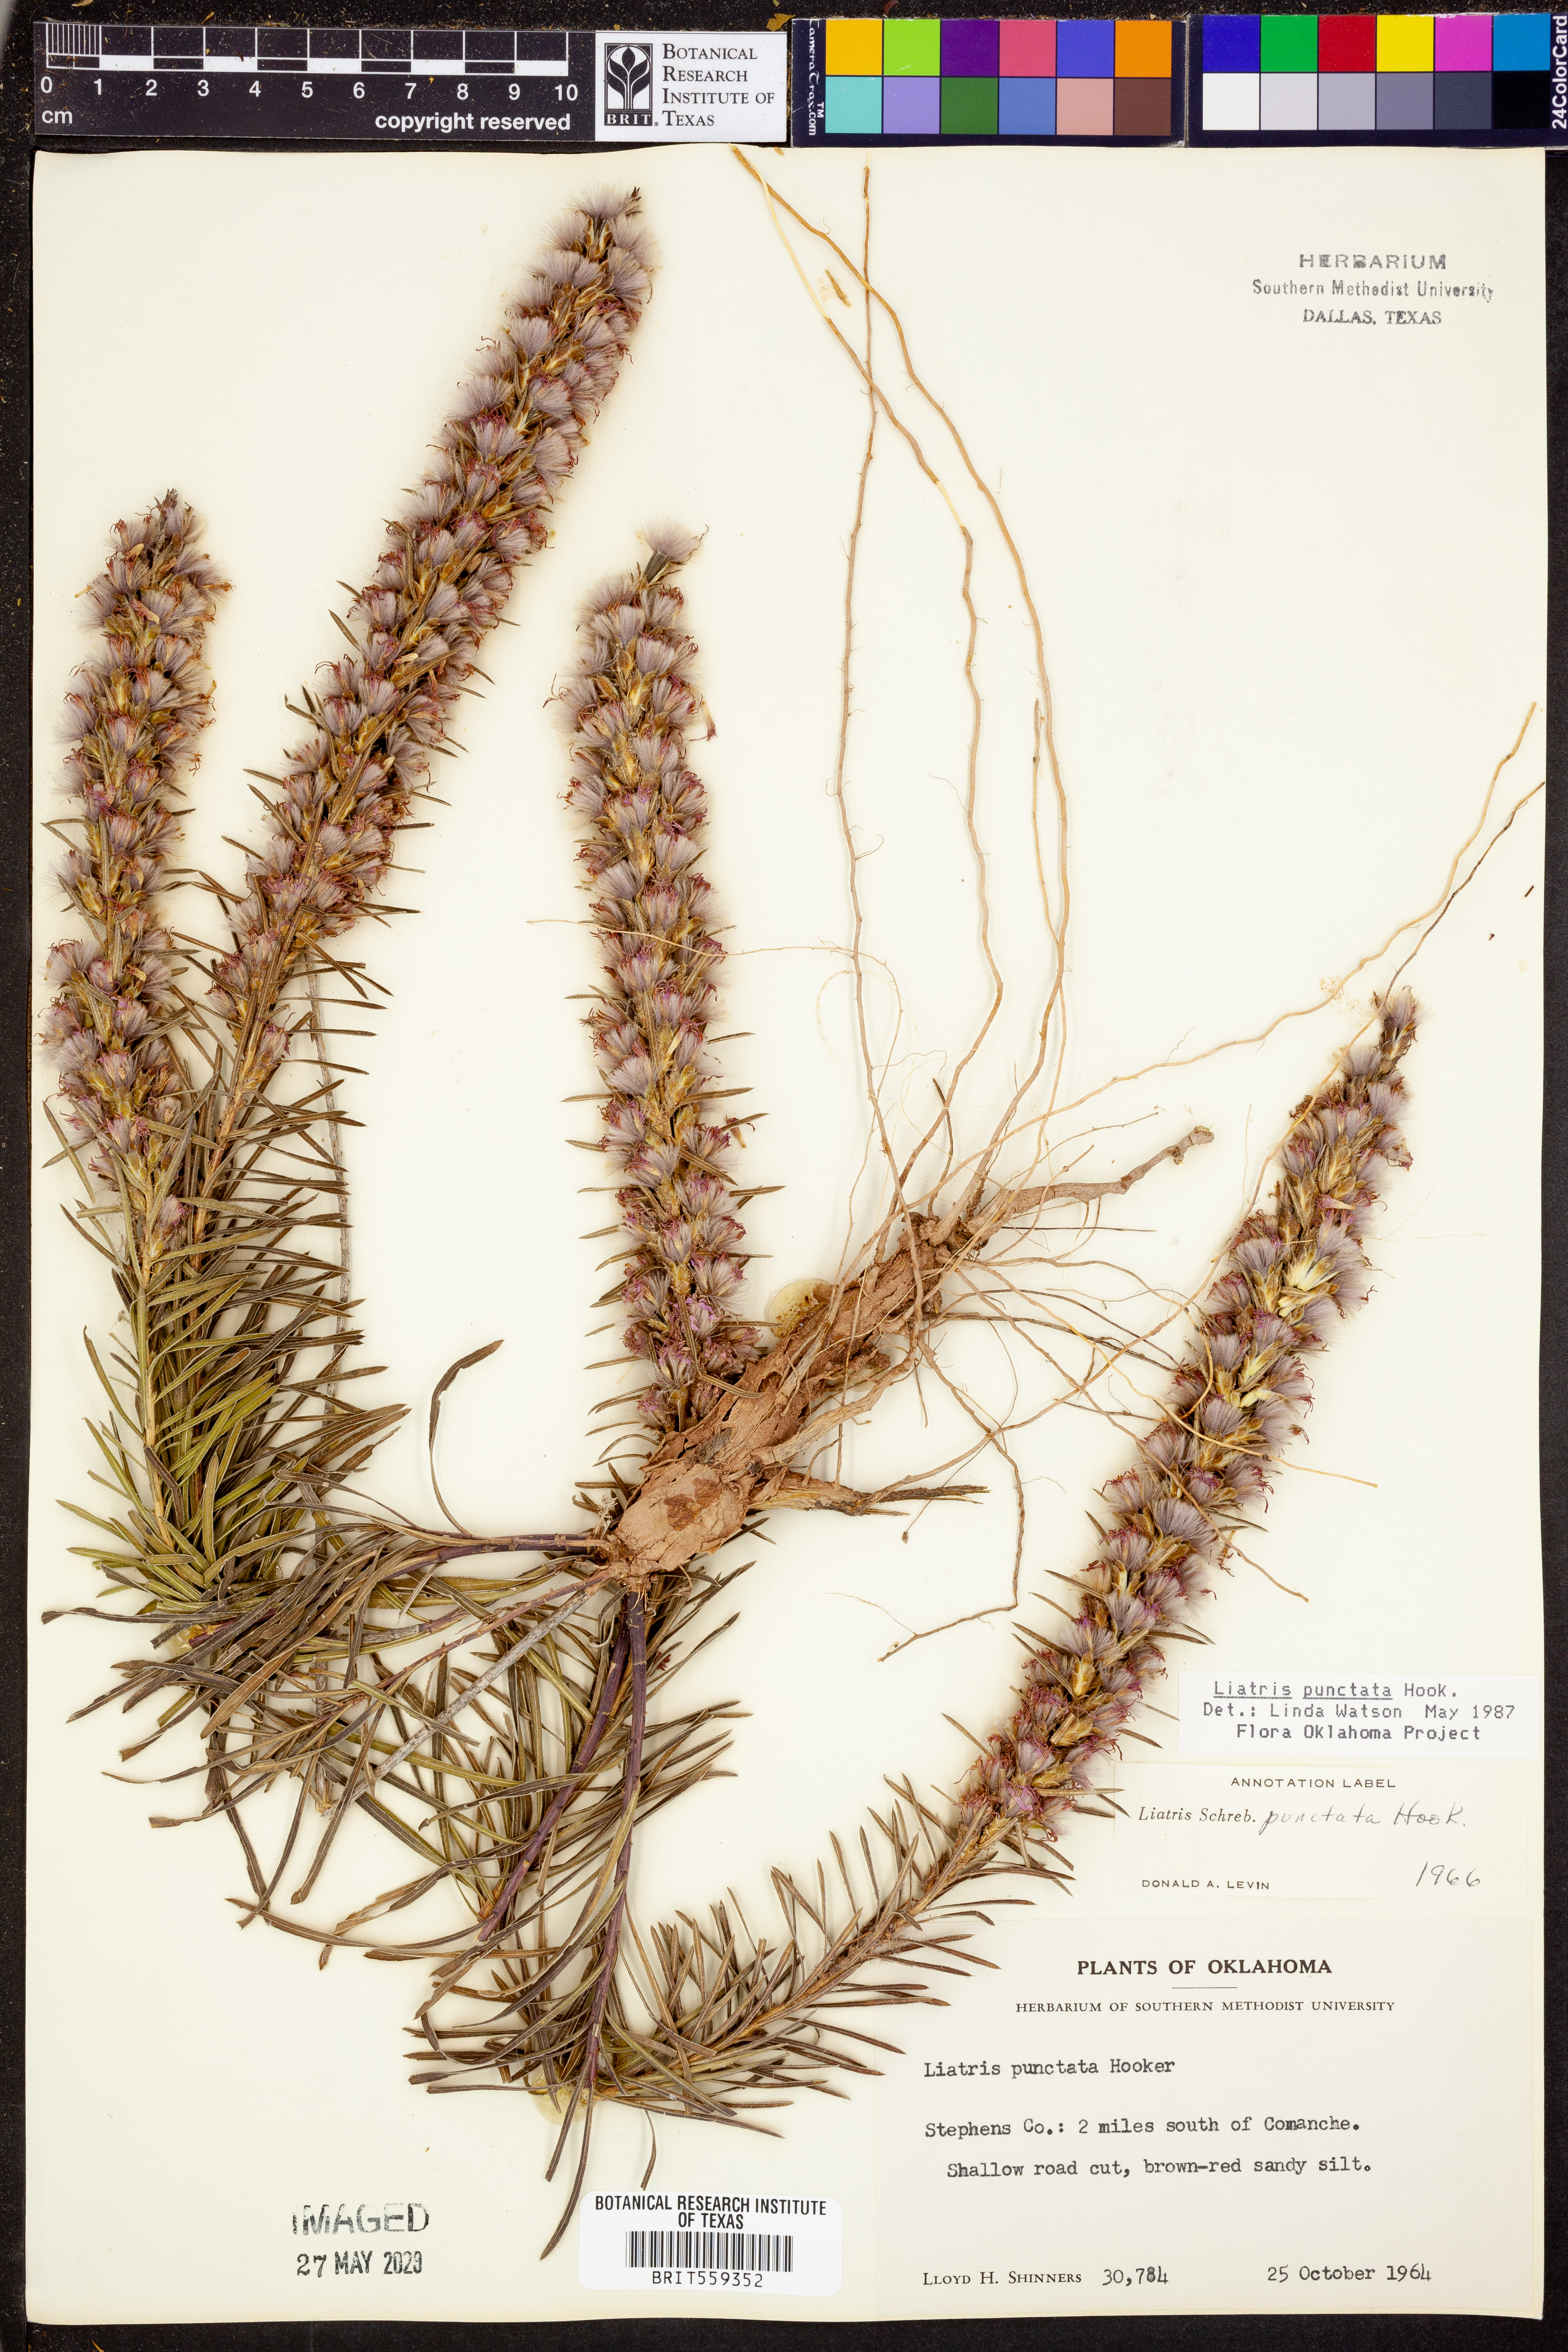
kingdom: Plantae
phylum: Tracheophyta
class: Magnoliopsida
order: Asterales
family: Asteraceae
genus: Liatris
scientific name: Liatris punctata
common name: Dotted gayfeather
